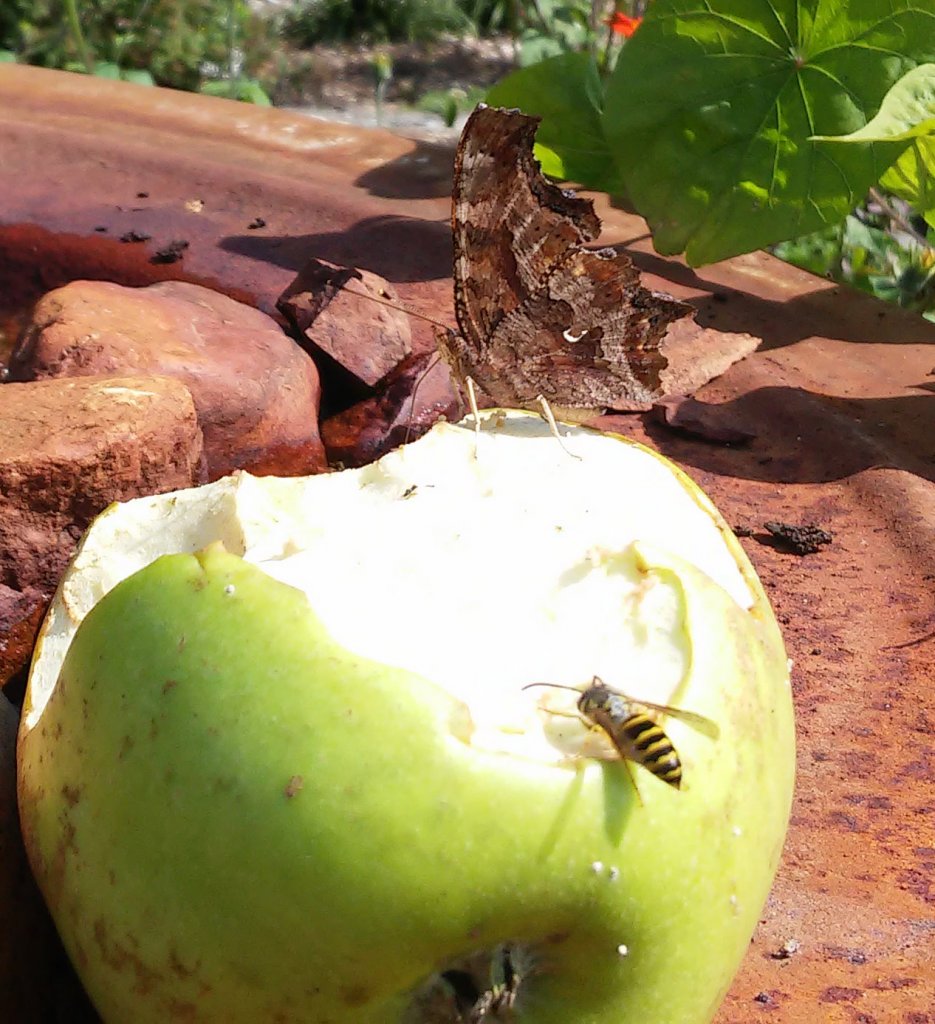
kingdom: Animalia
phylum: Arthropoda
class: Insecta
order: Lepidoptera
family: Nymphalidae
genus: Polygonia
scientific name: Polygonia comma
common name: Eastern Comma
